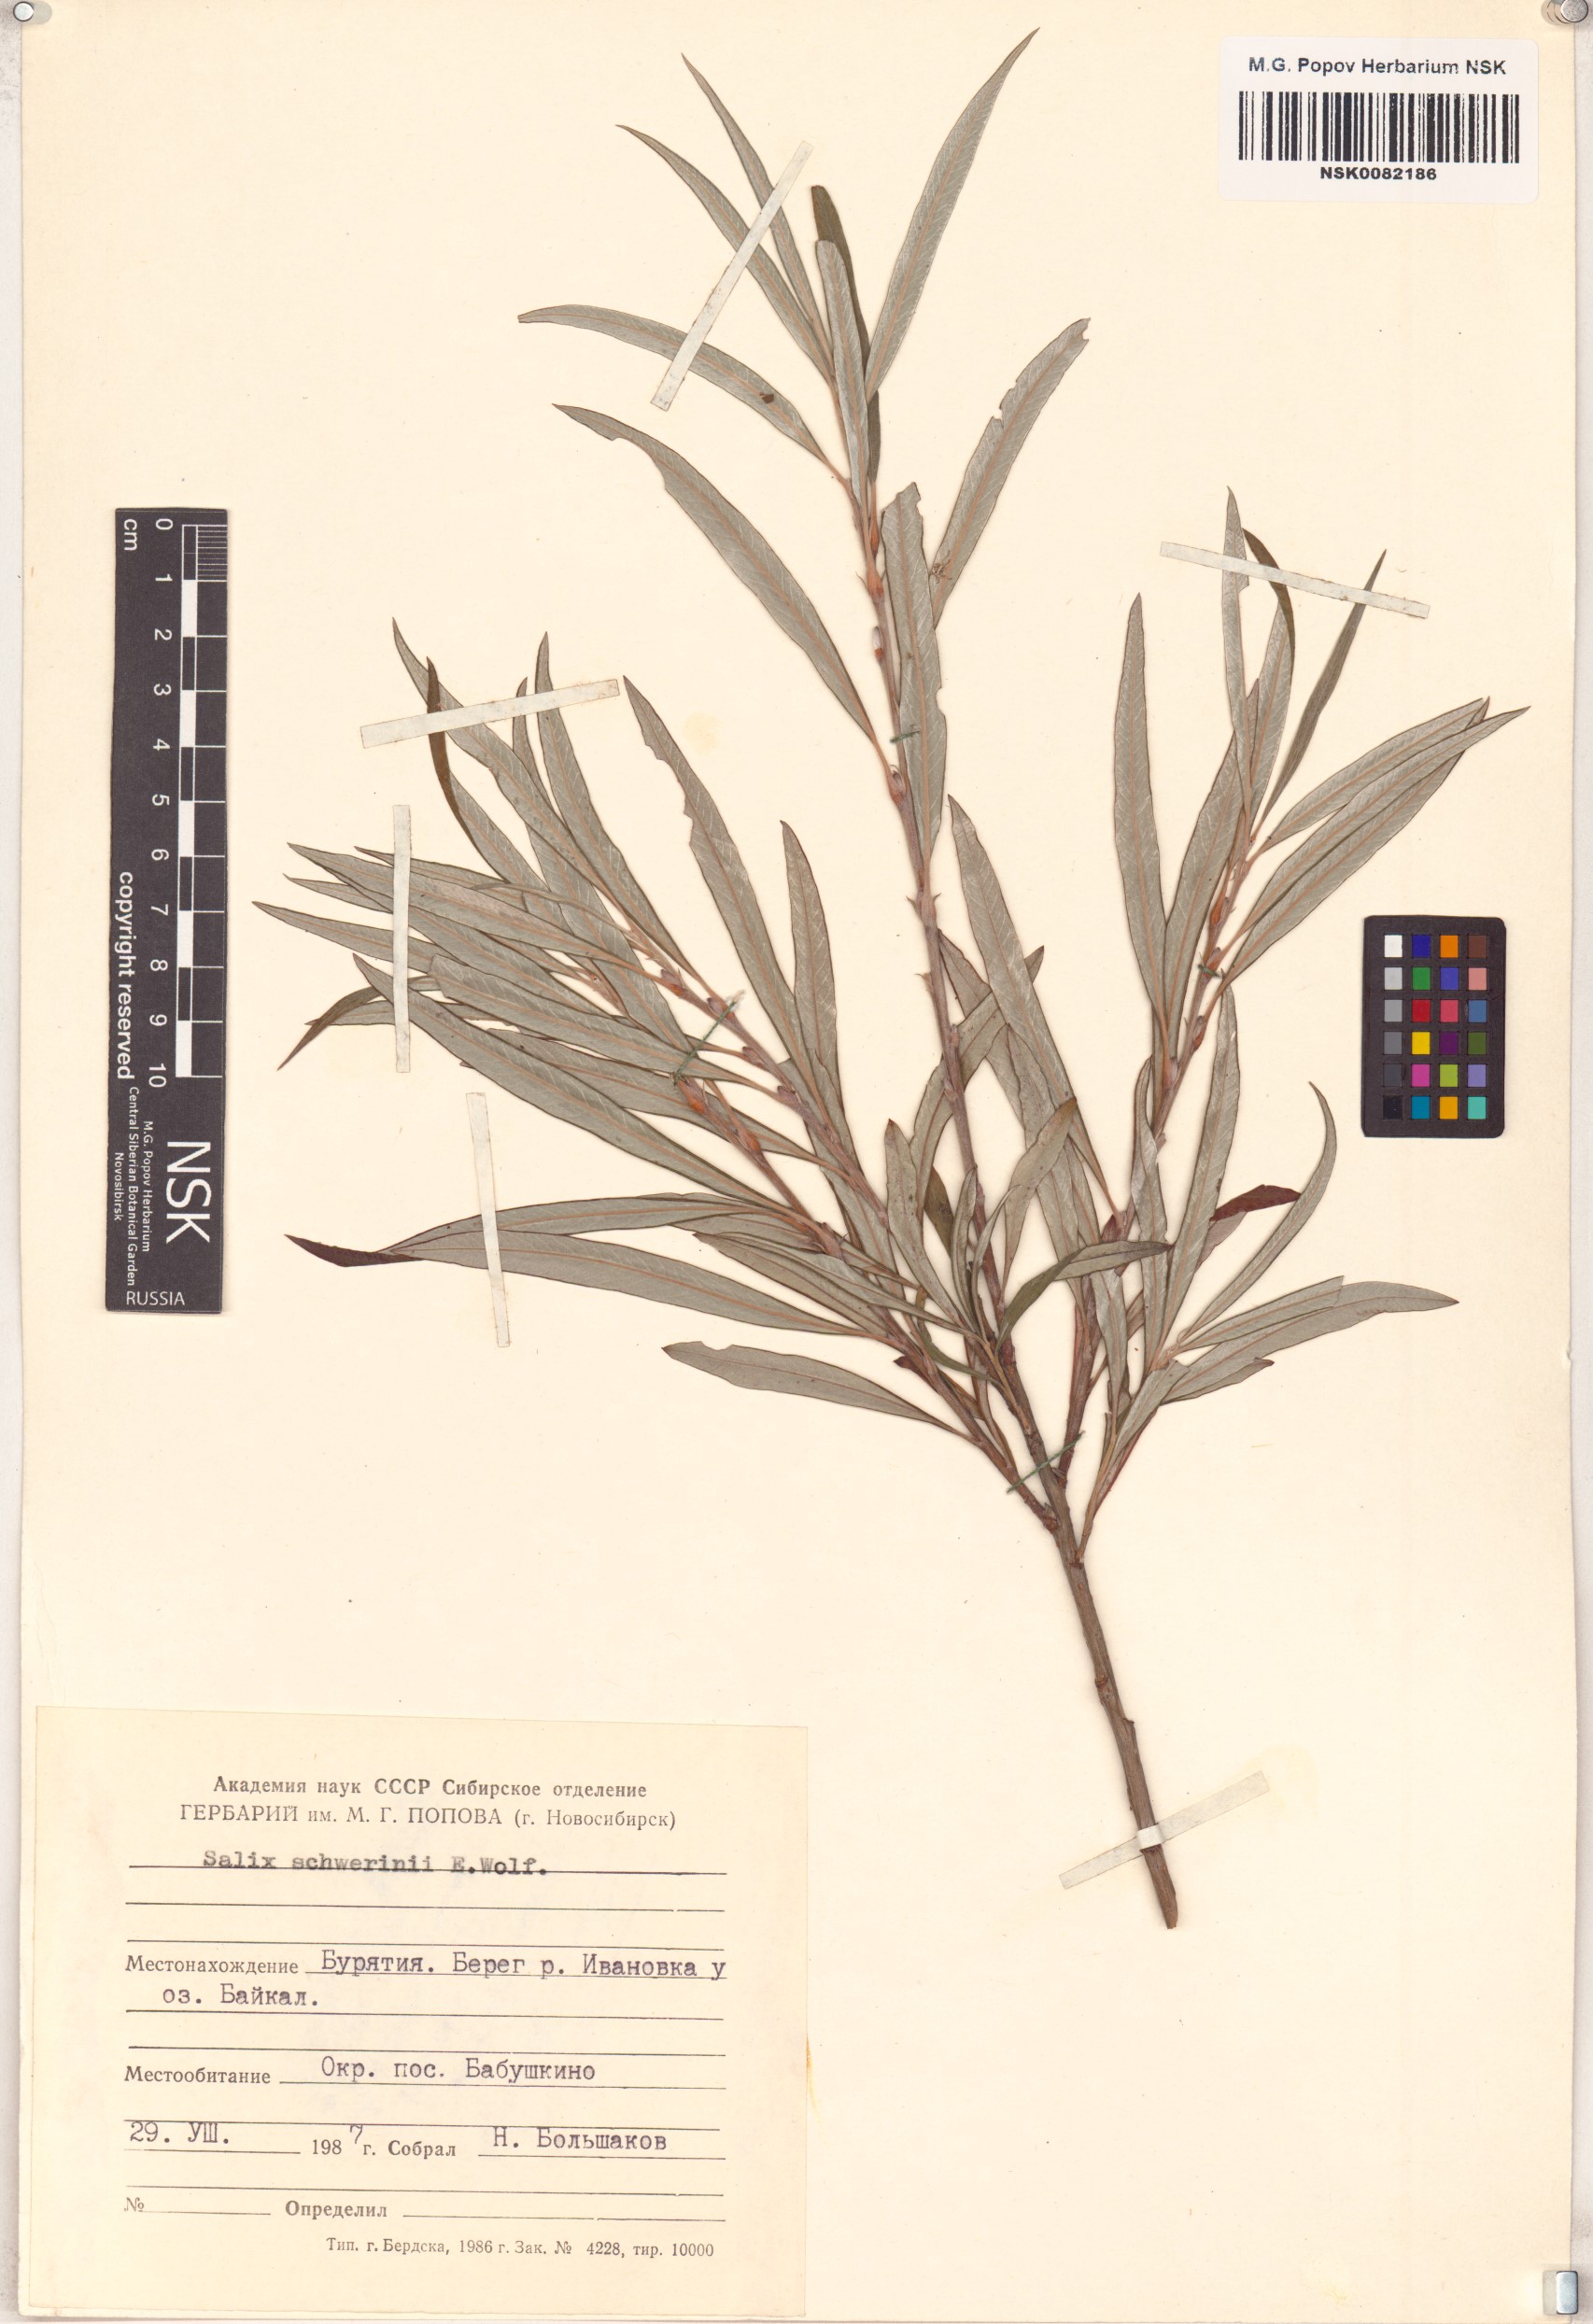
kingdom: Plantae
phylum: Tracheophyta
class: Magnoliopsida
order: Malpighiales
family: Salicaceae
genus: Salix
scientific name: Salix schwerinii
